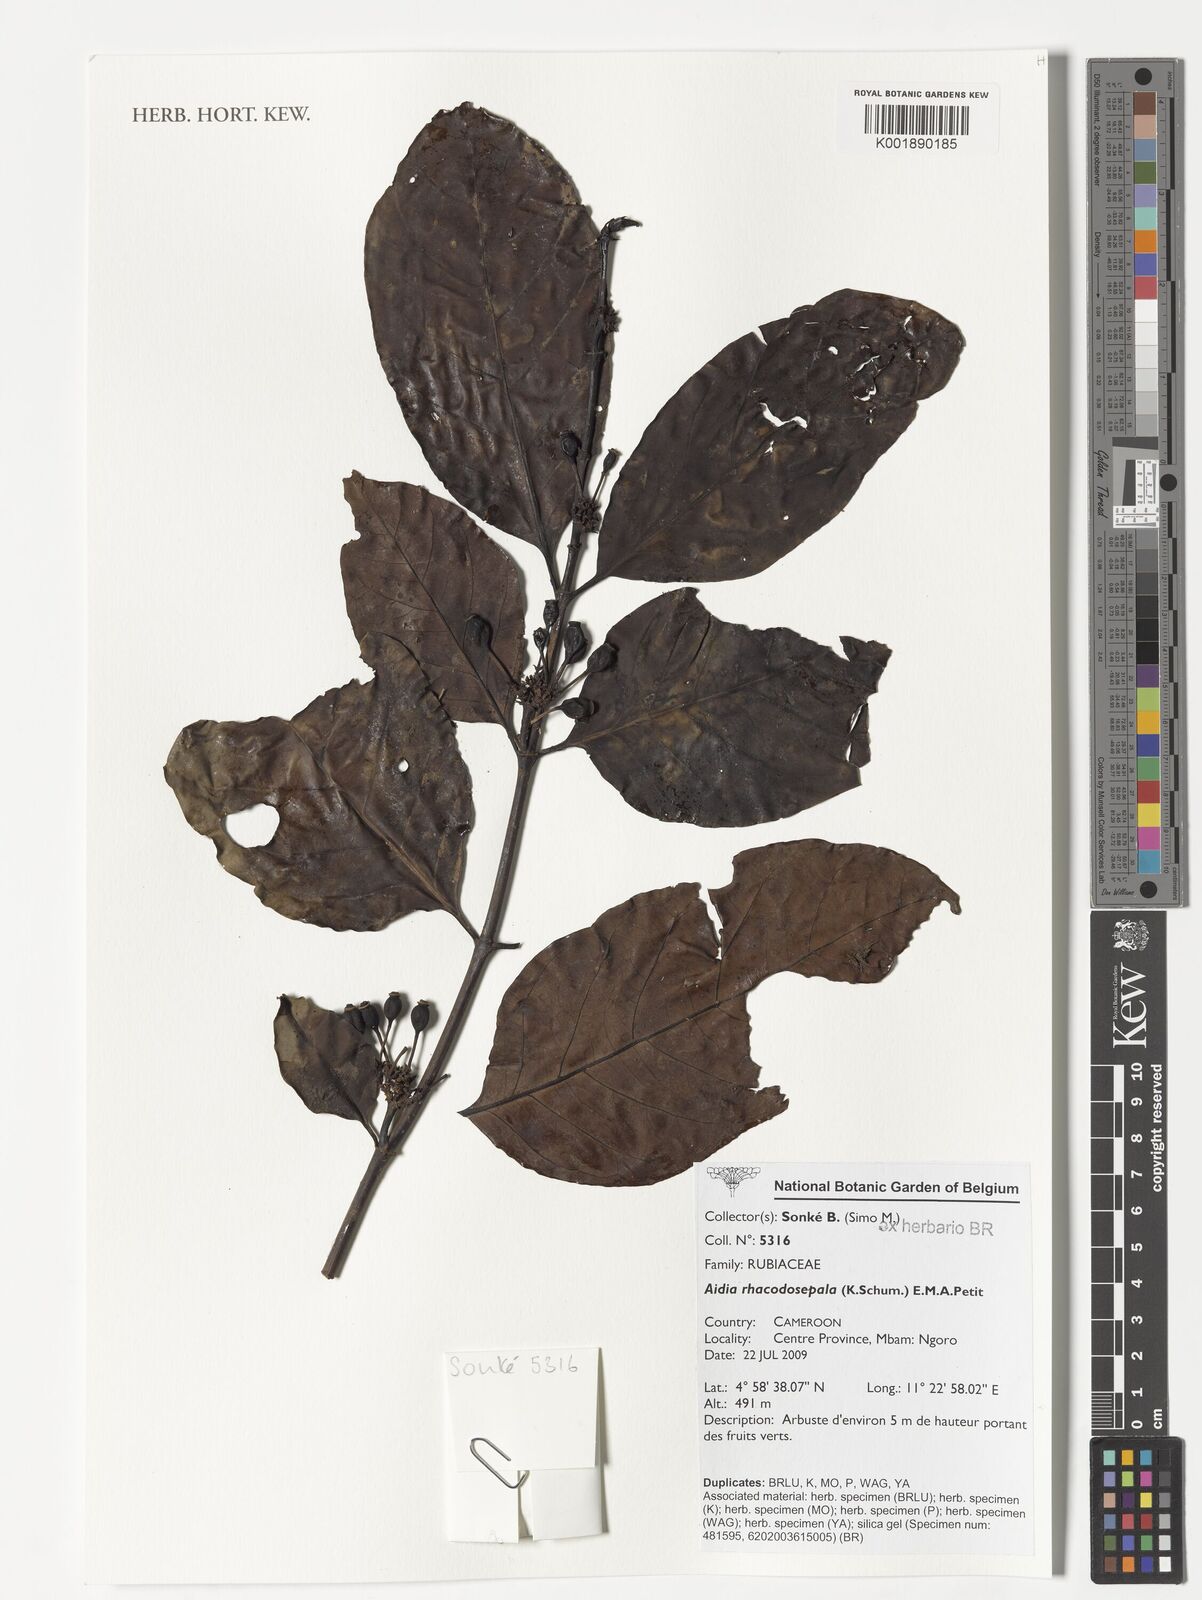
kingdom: Plantae
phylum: Tracheophyta
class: Magnoliopsida
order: Gentianales
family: Rubiaceae
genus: Aidia
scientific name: Aidia rhacodosepala
